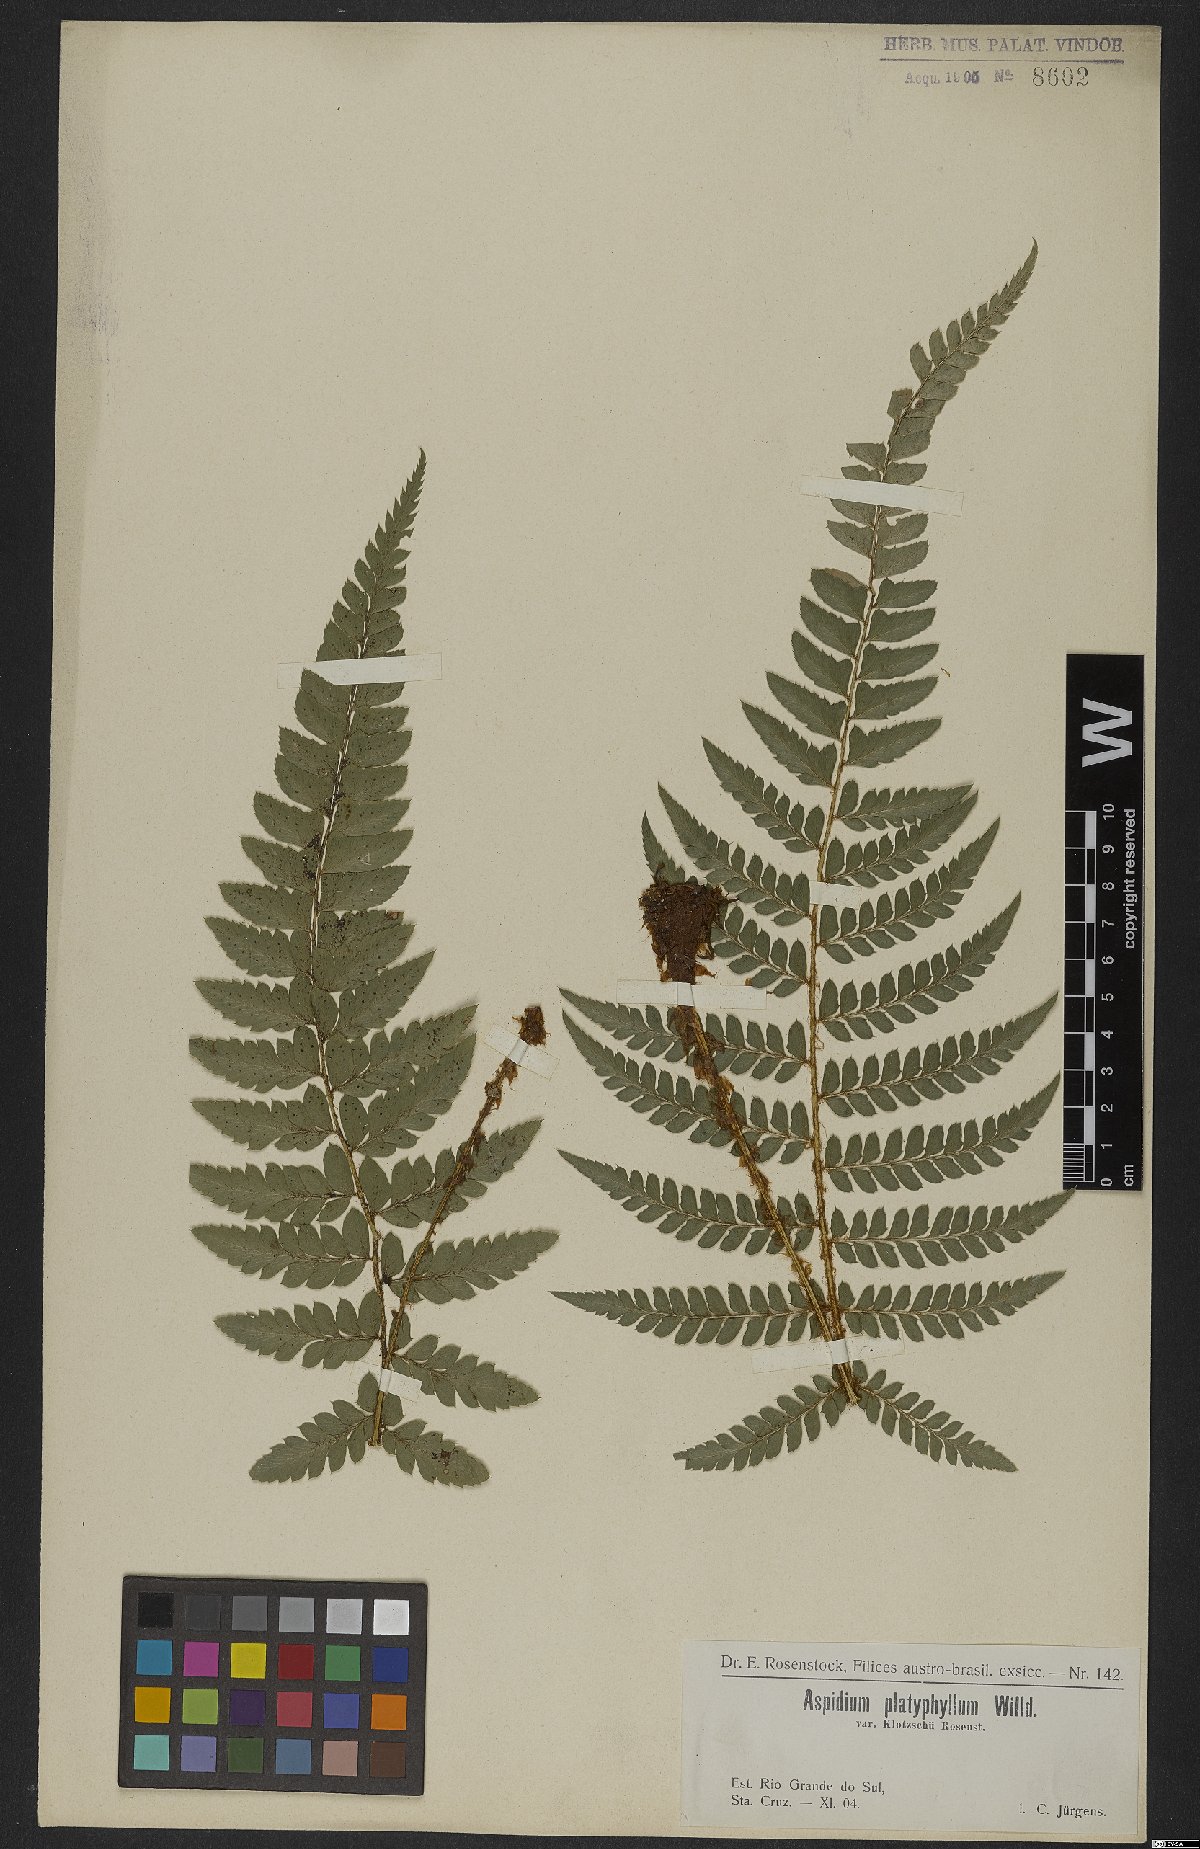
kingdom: Plantae
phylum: Tracheophyta
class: Polypodiopsida
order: Polypodiales
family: Dryopteridaceae
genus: Polystichum
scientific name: Polystichum aculeatum
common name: Hard shield-fern
